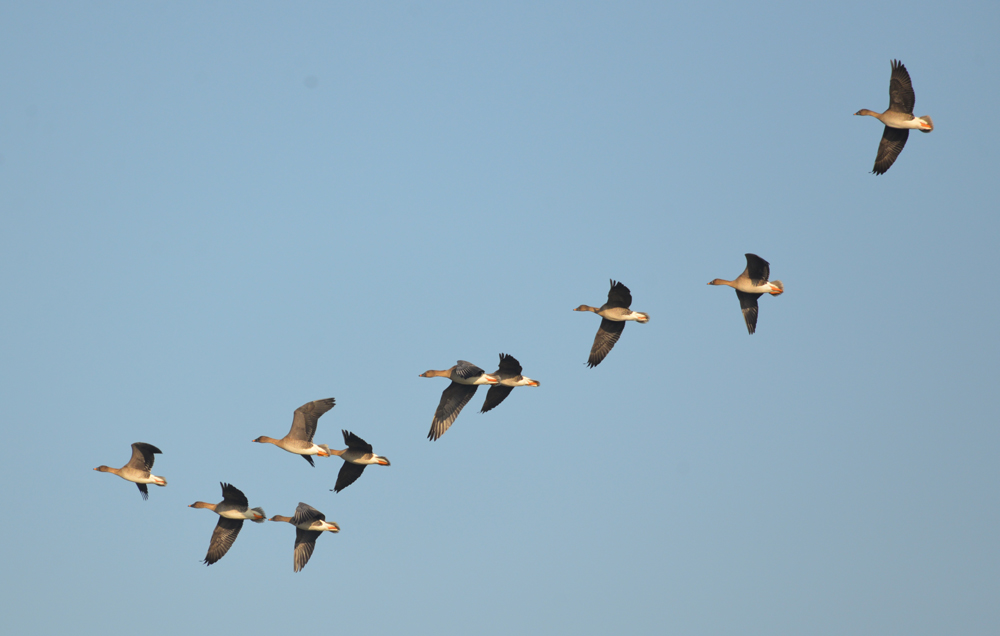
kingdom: Animalia
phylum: Chordata
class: Aves
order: Anseriformes
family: Anatidae
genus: Anser
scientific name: Anser serrirostris
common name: Tundra bean goose
